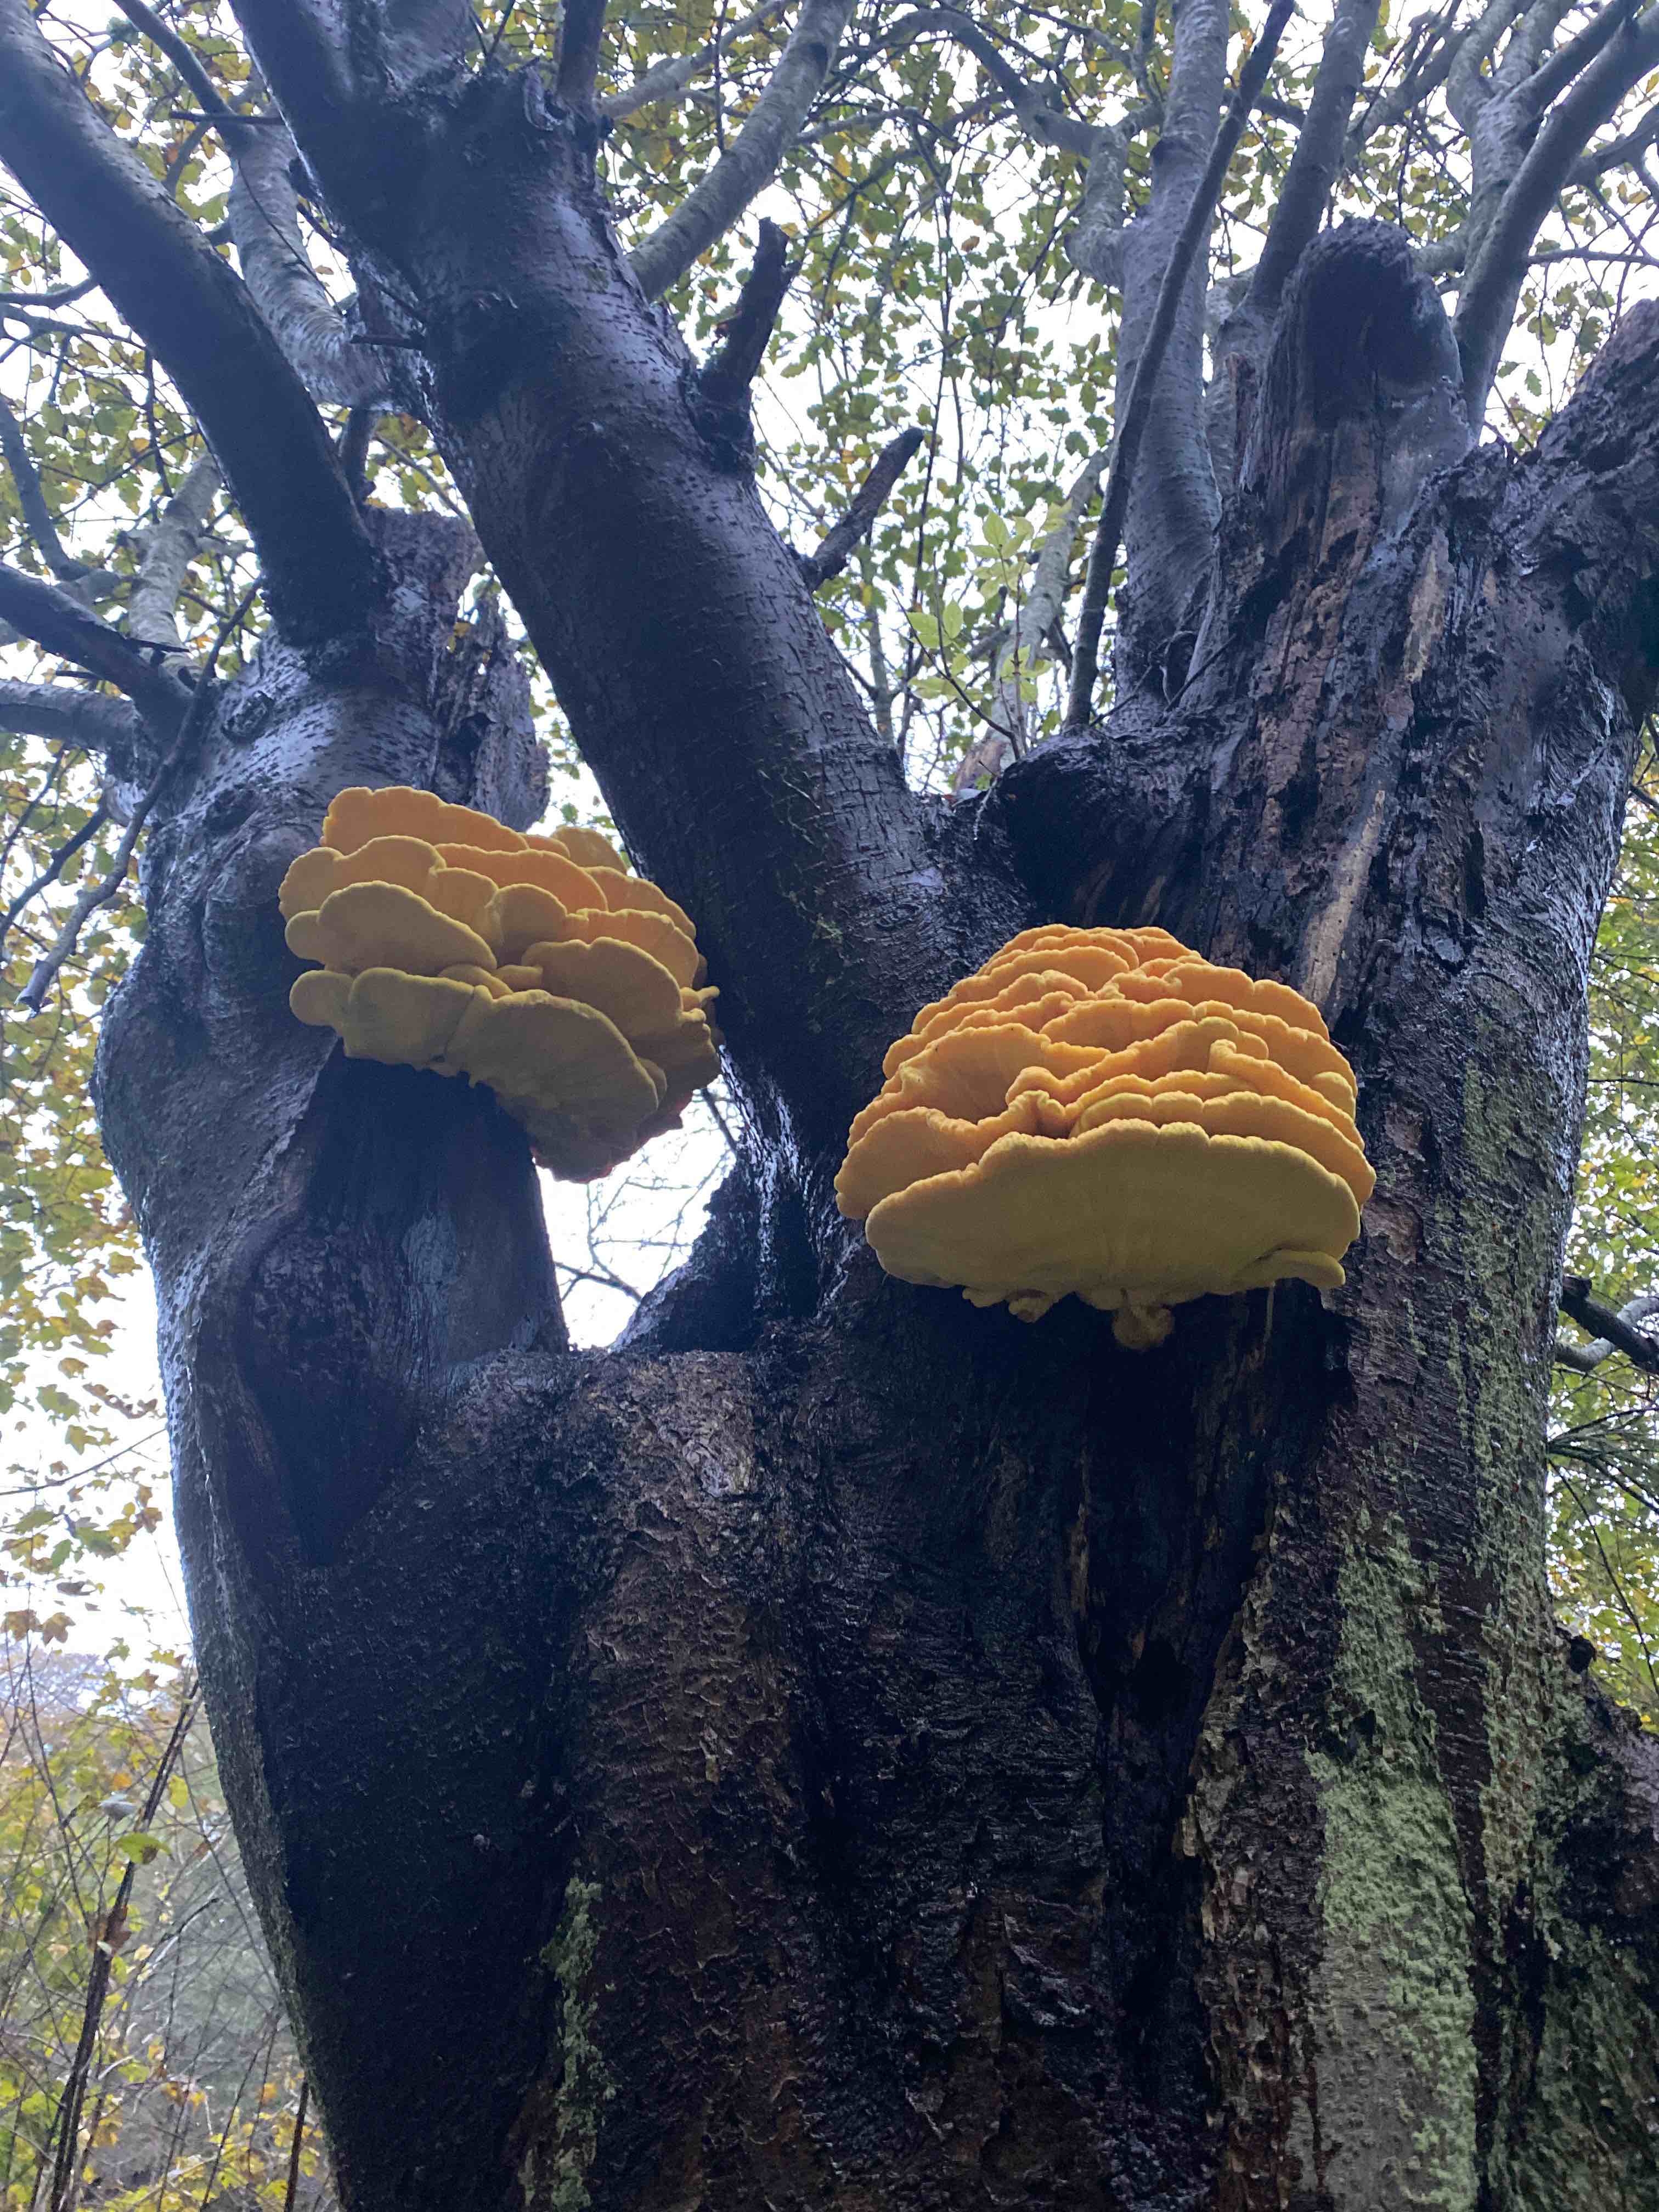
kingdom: Fungi
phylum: Basidiomycota
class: Agaricomycetes
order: Polyporales
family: Laetiporaceae
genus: Laetiporus
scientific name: Laetiporus sulphureus
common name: svovlporesvamp
